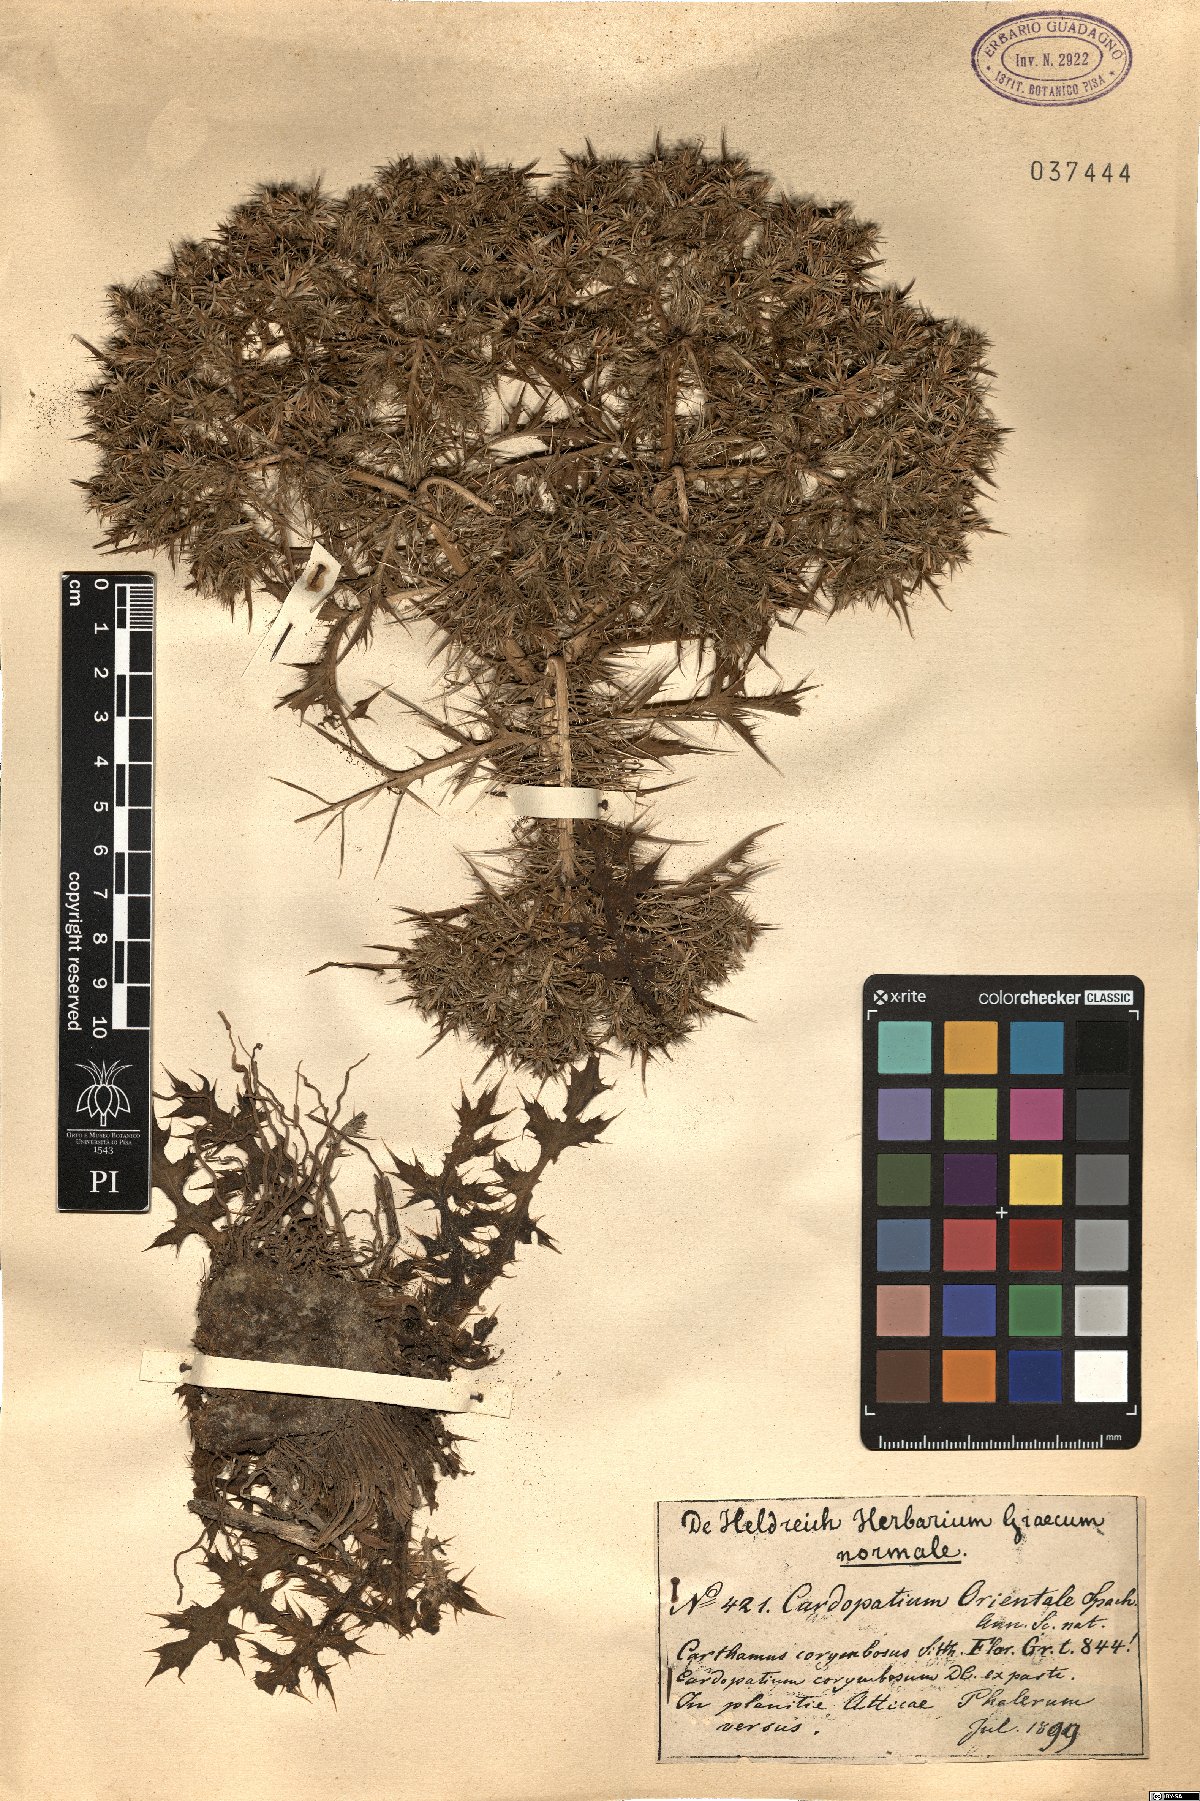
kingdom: Plantae
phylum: Tracheophyta
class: Magnoliopsida
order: Asterales
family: Asteraceae
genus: Cardopatium
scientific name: Cardopatium corymbosum
